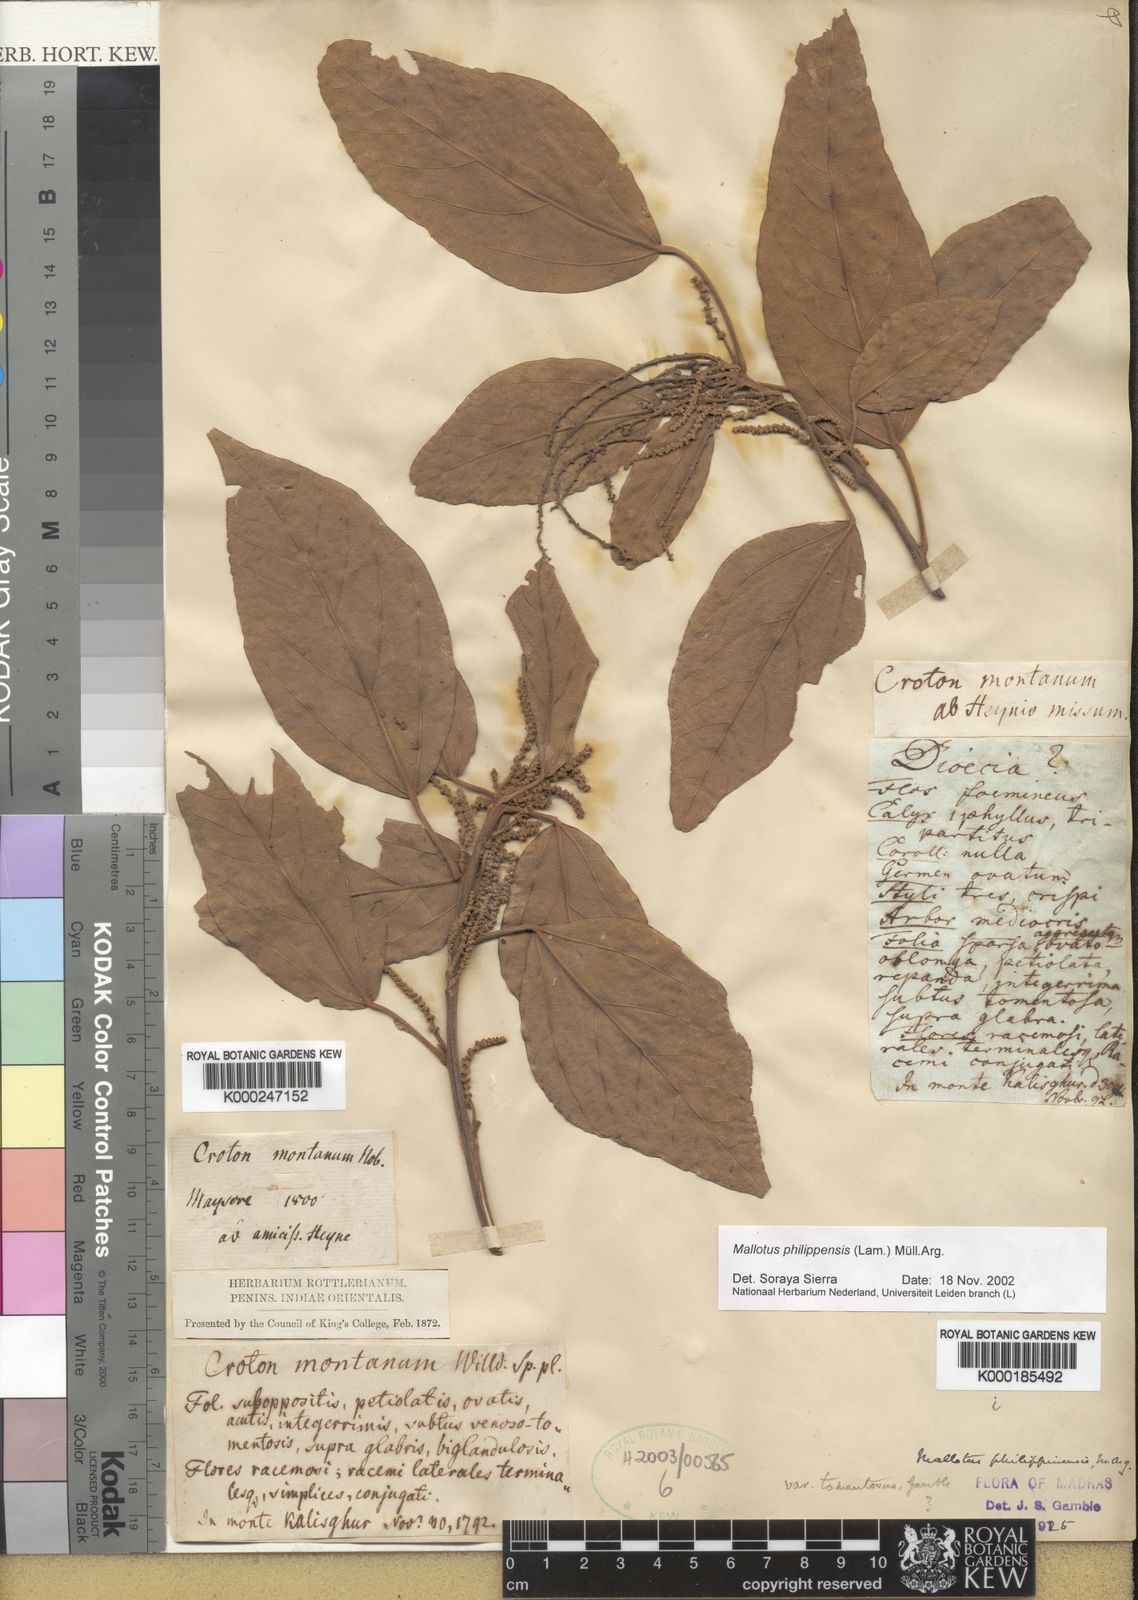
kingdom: Plantae
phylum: Tracheophyta
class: Magnoliopsida
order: Malpighiales
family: Euphorbiaceae
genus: Mallotus
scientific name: Mallotus
